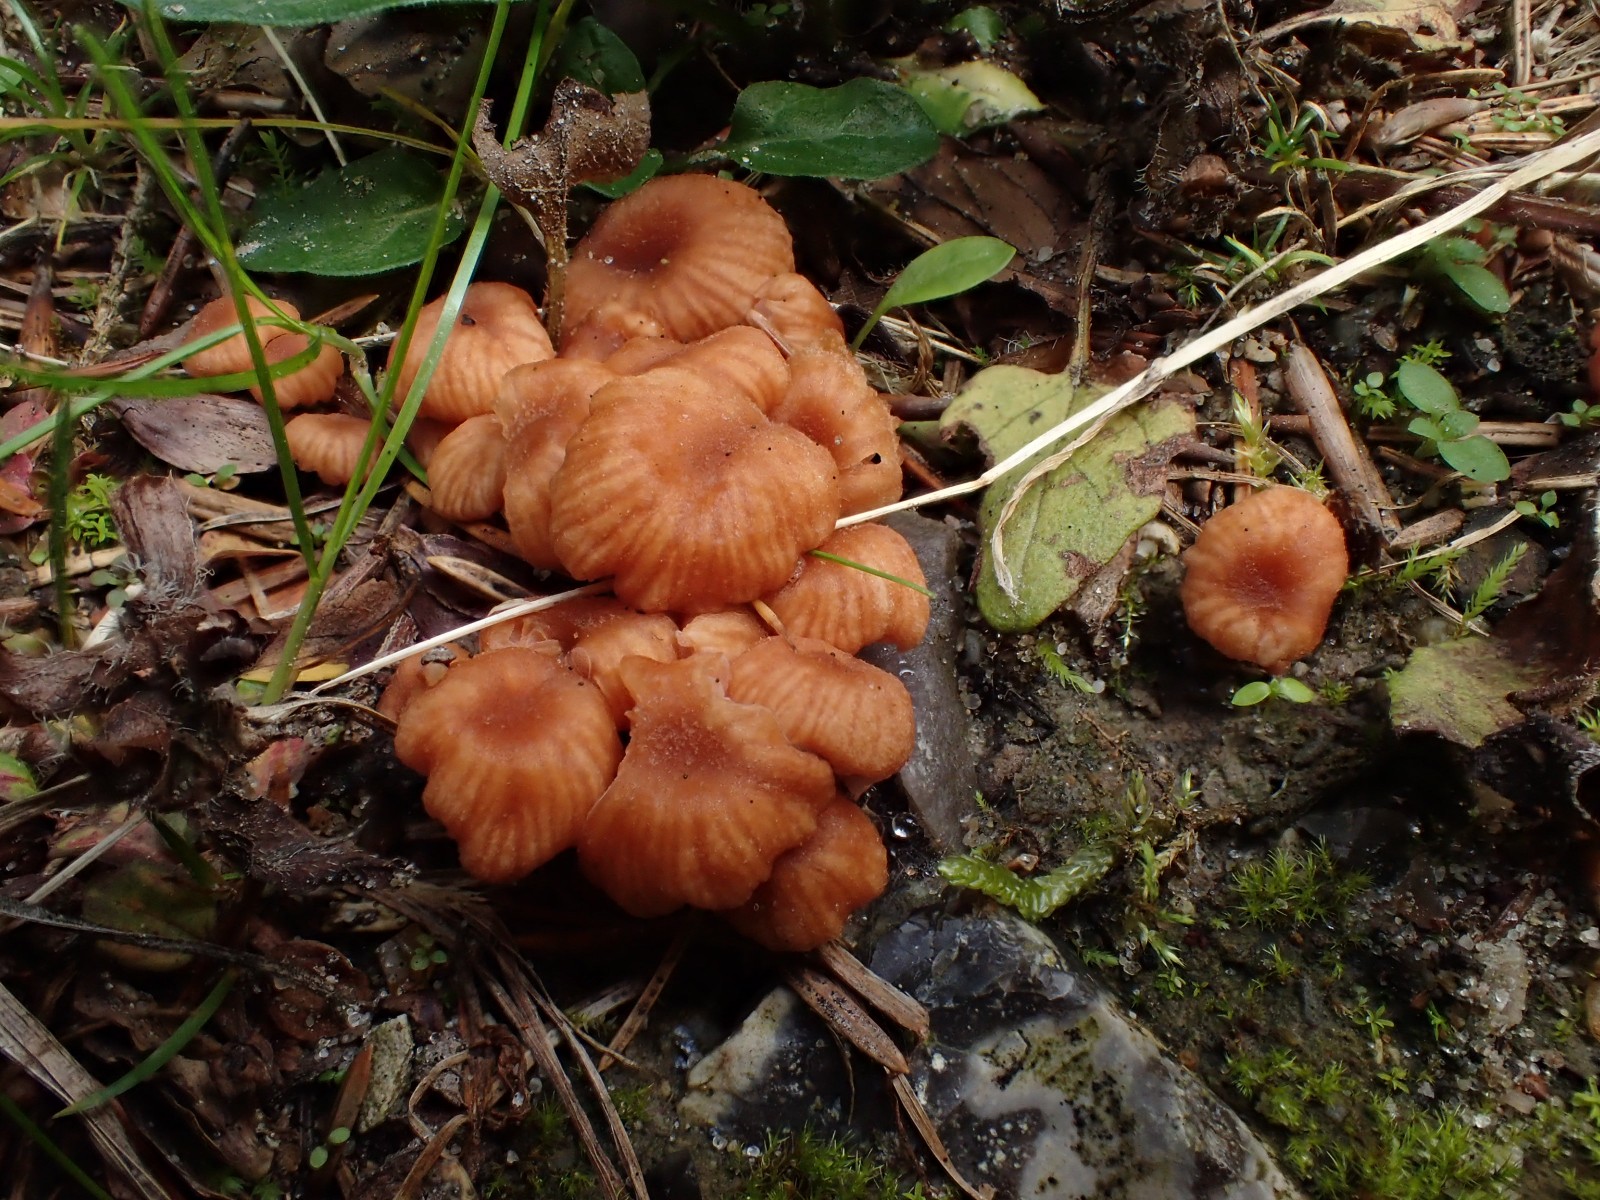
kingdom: Fungi
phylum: Basidiomycota
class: Agaricomycetes
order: Agaricales
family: Hydnangiaceae
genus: Laccaria
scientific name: Laccaria tortilis
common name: krybende ametysthat
